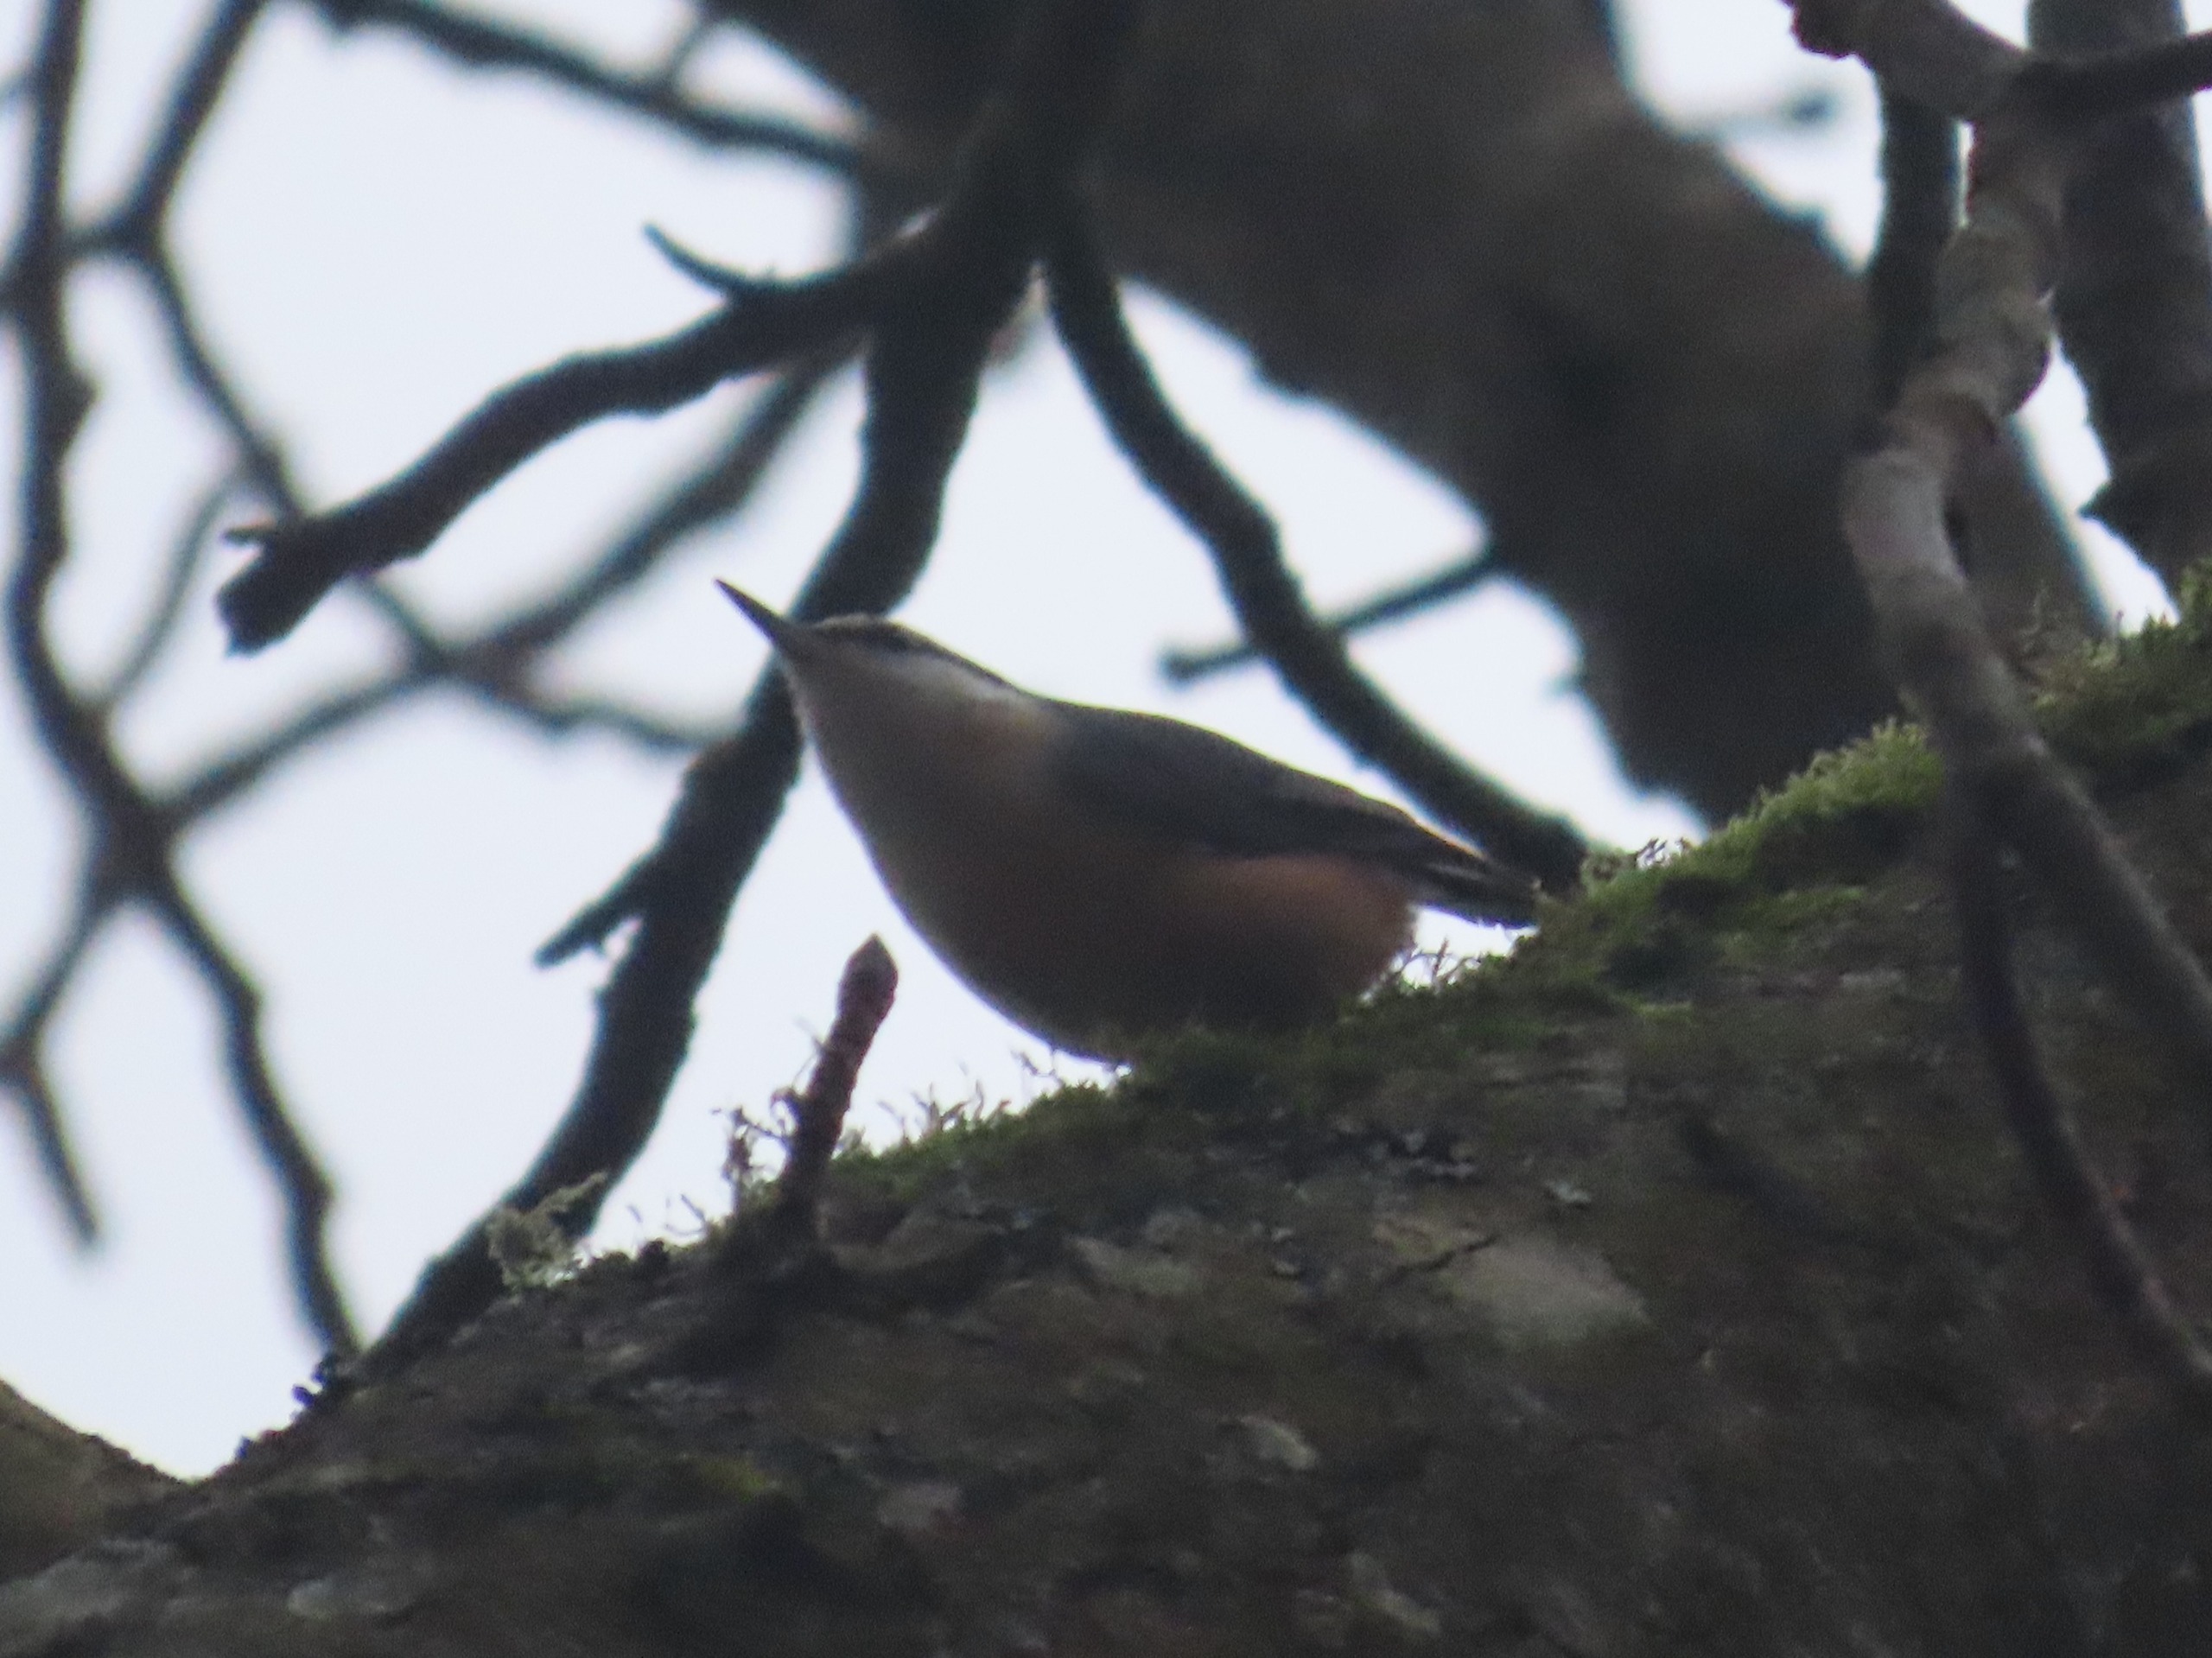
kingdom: Animalia
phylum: Chordata
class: Aves
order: Passeriformes
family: Sittidae
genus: Sitta
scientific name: Sitta europaea
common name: Spætmejse
